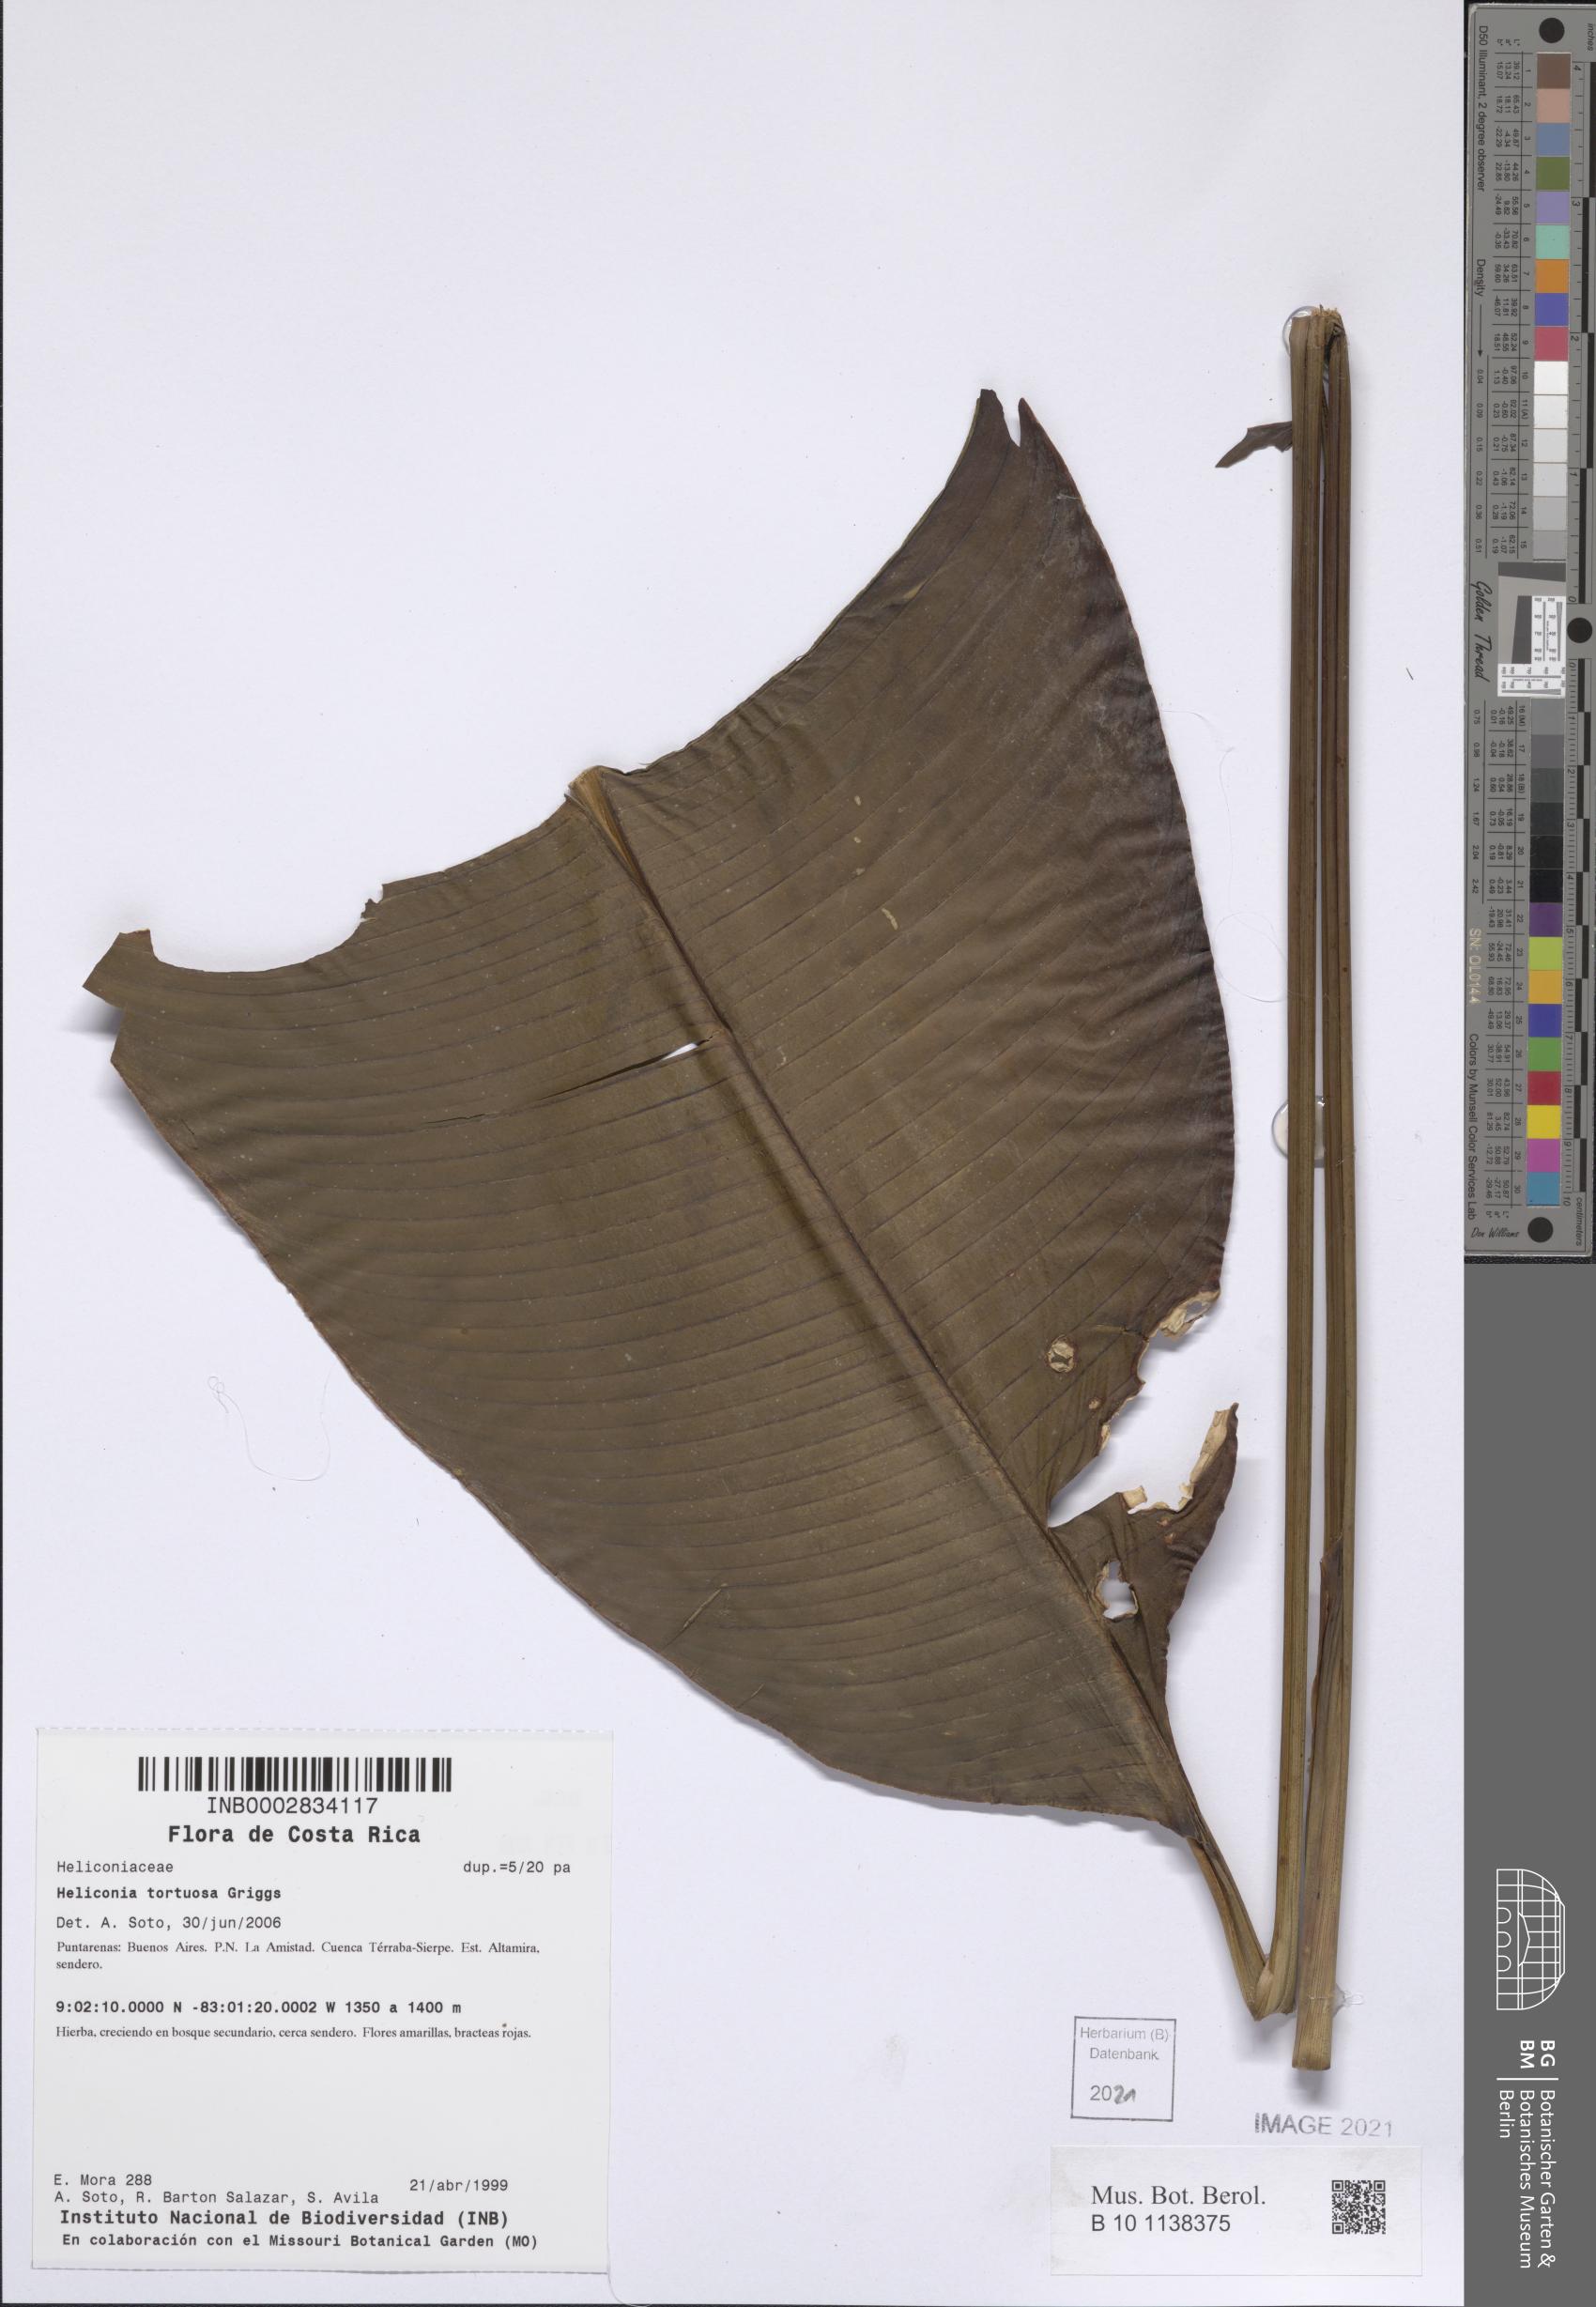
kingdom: Plantae
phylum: Tracheophyta
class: Liliopsida
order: Zingiberales
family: Heliconiaceae
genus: Heliconia
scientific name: Heliconia tortuosa
